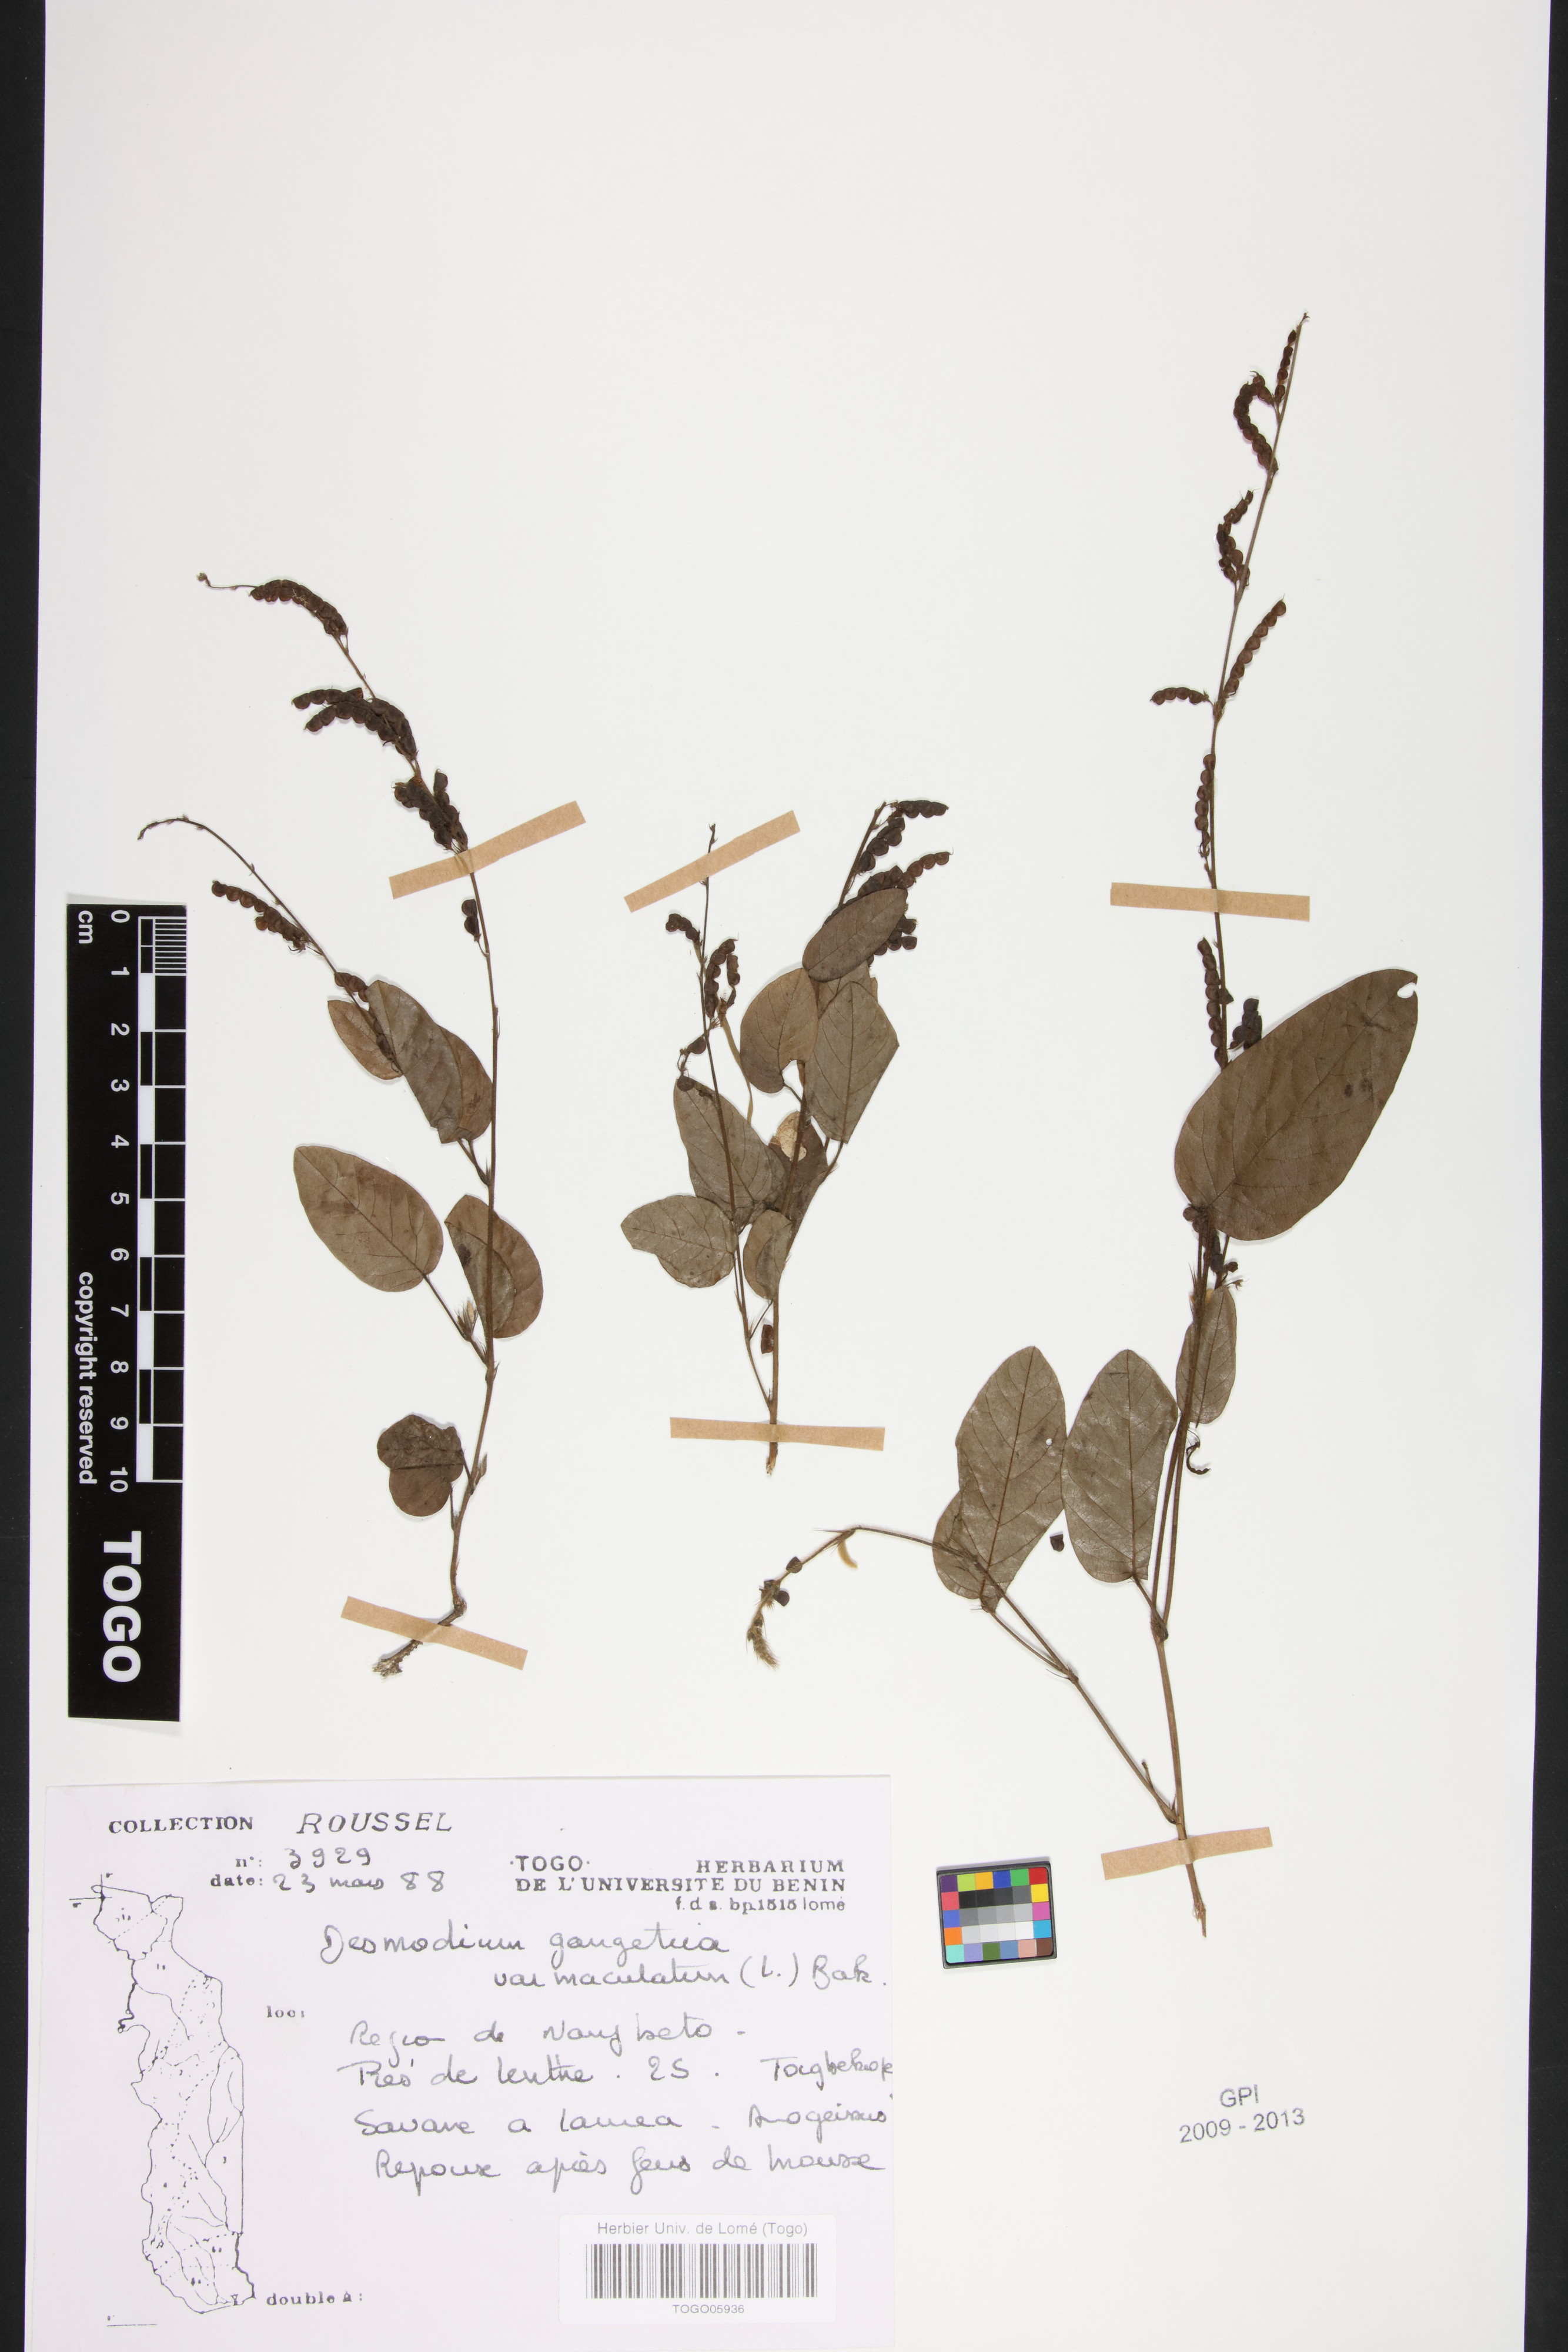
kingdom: Plantae
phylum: Tracheophyta
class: Magnoliopsida
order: Fabales
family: Fabaceae
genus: Pleurolobus
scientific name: Pleurolobus gangeticus
